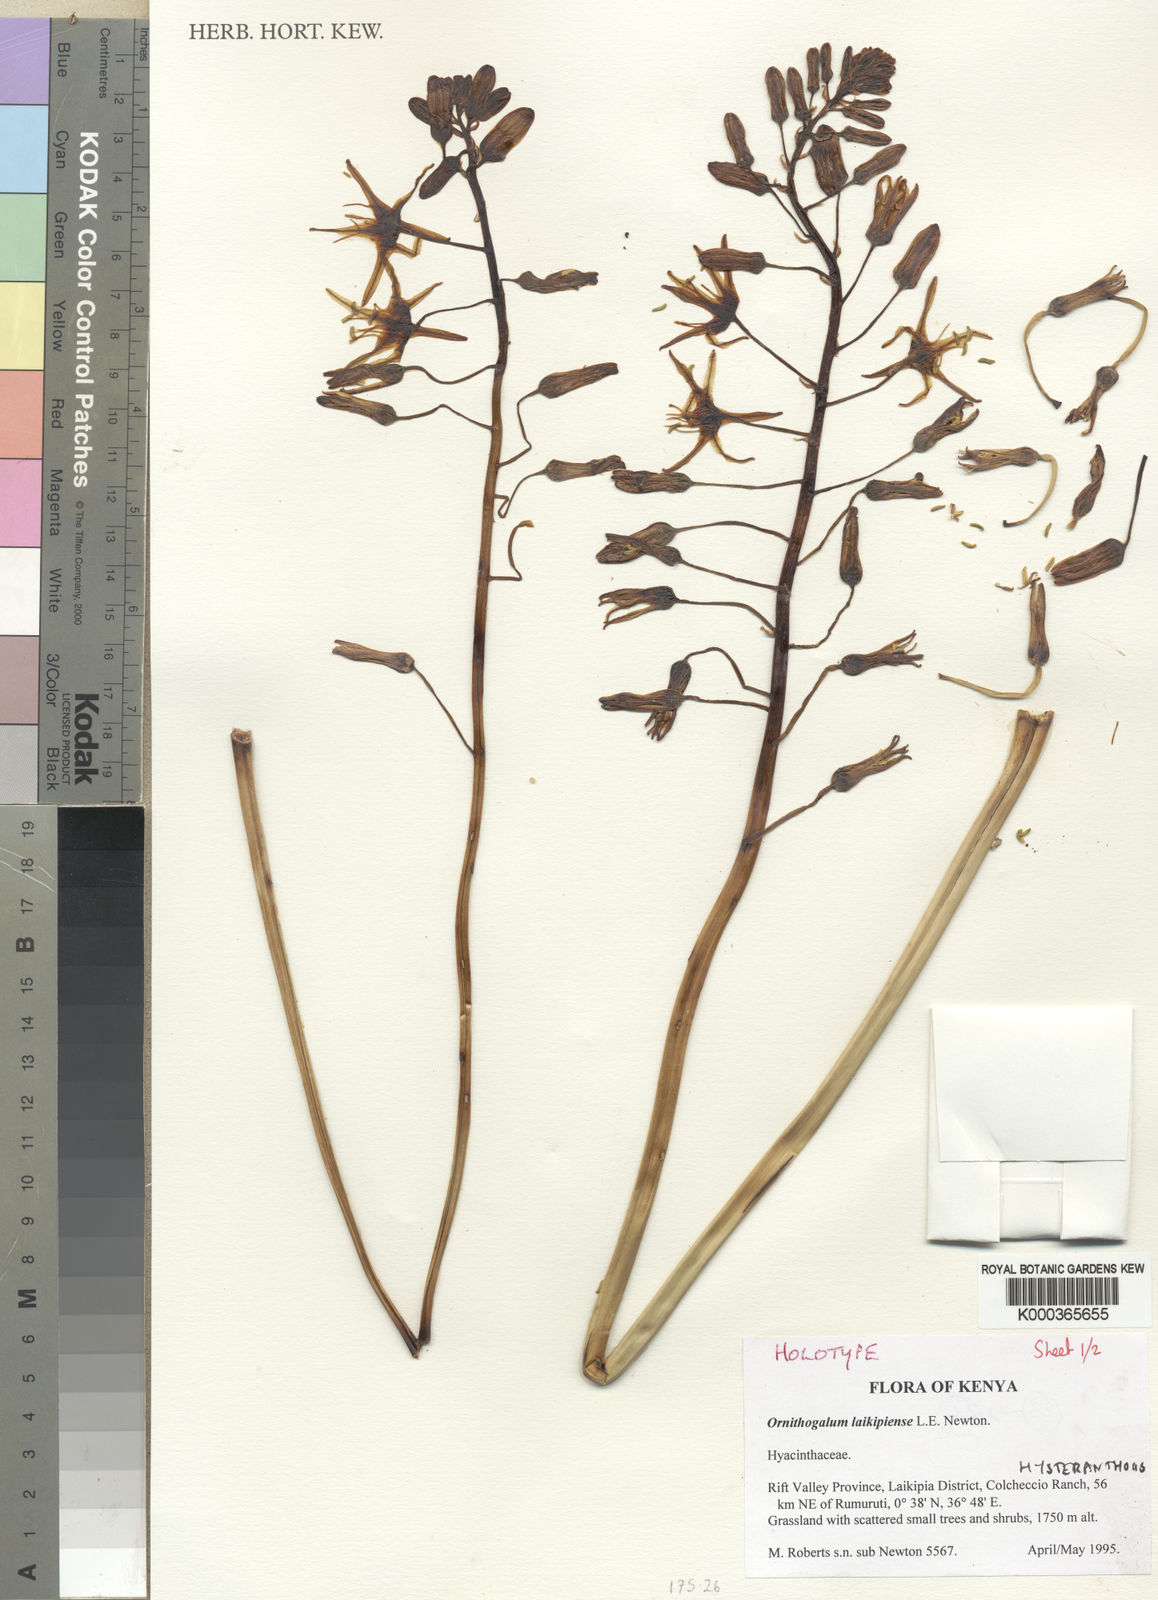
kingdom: Plantae
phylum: Tracheophyta
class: Liliopsida
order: Asparagales
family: Asparagaceae
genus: Drimia
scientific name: Drimia basutica
